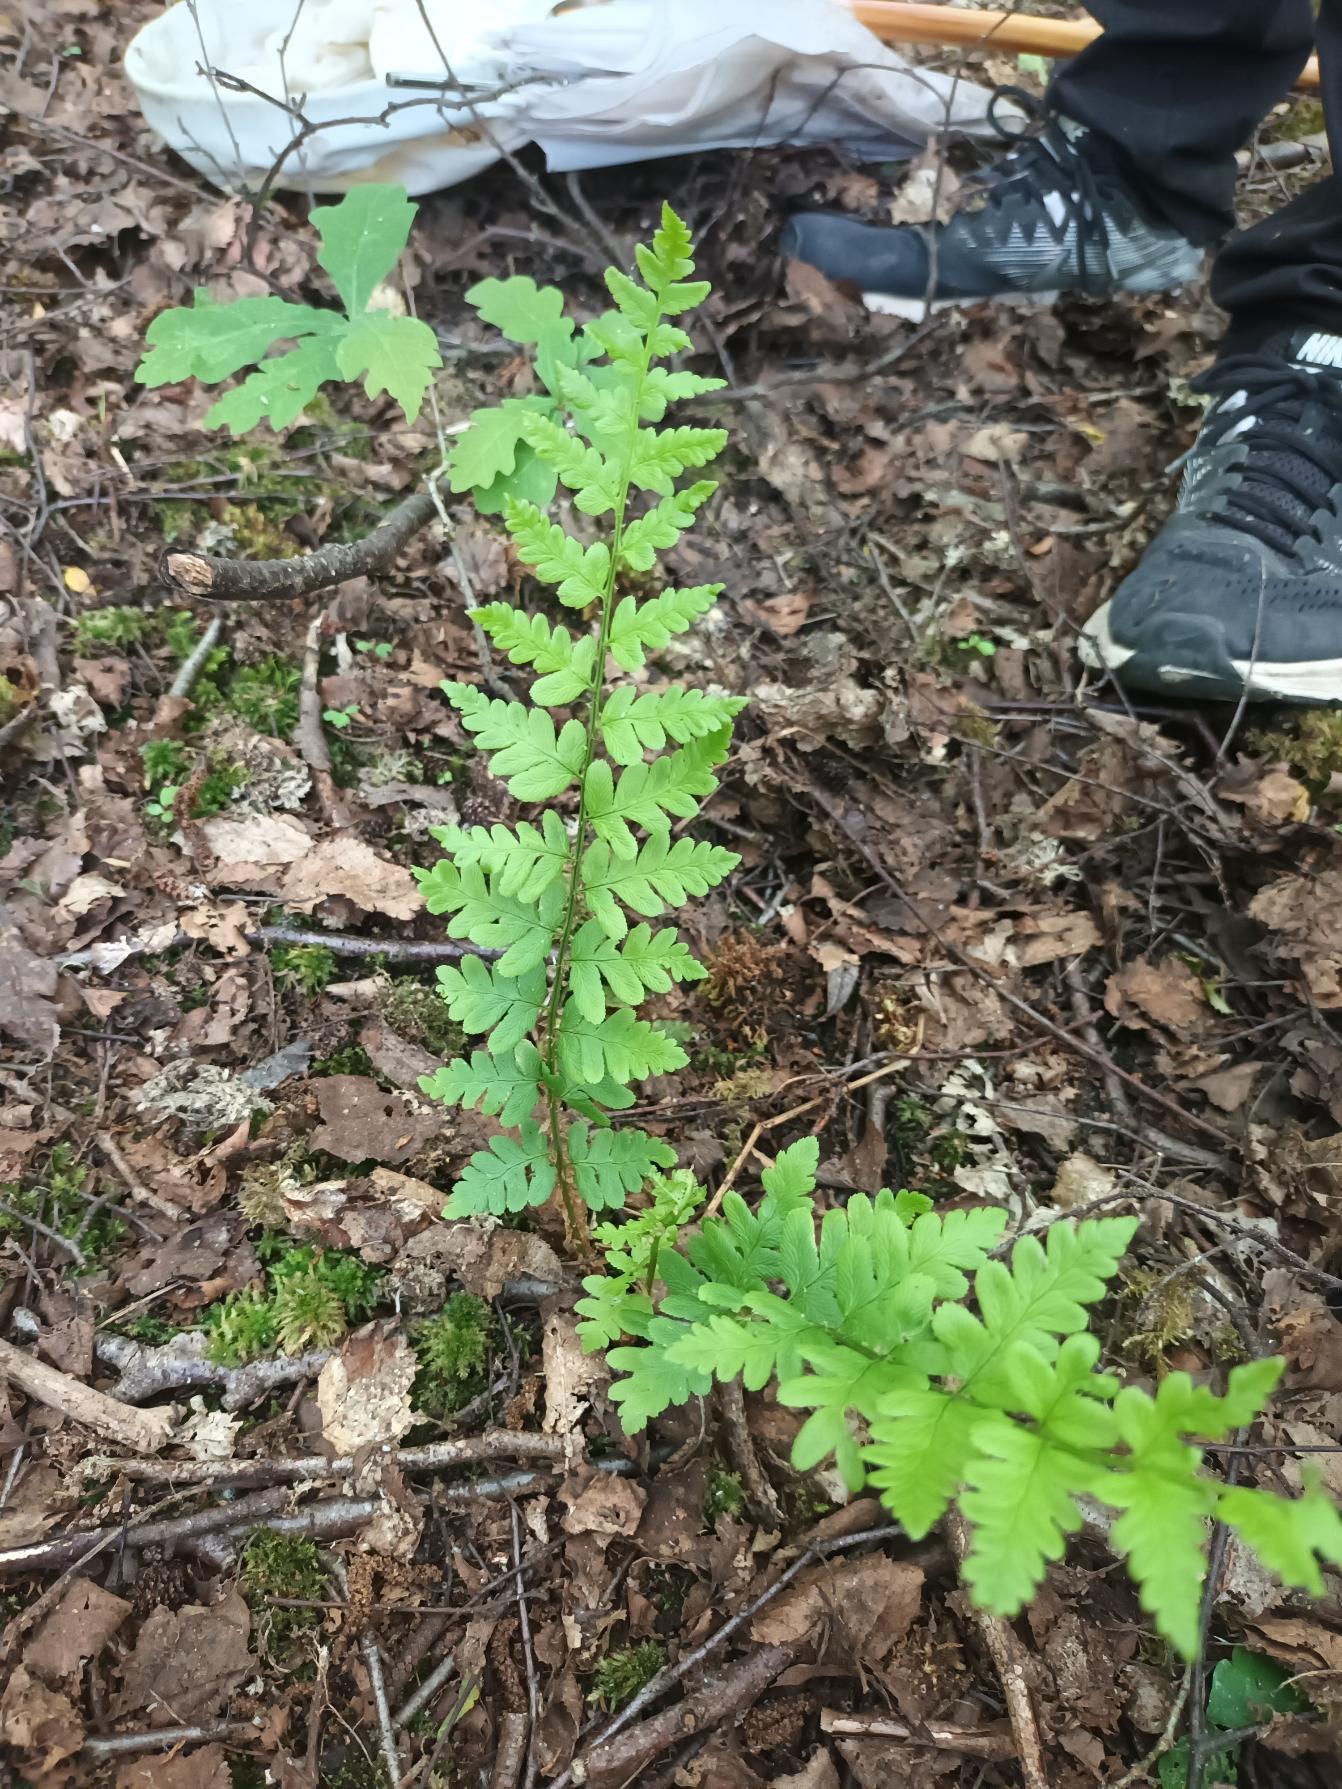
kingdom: Plantae
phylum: Tracheophyta
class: Polypodiopsida
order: Polypodiales
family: Dryopteridaceae
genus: Dryopteris
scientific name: Dryopteris cristata
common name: Butfinnet mangeløv
